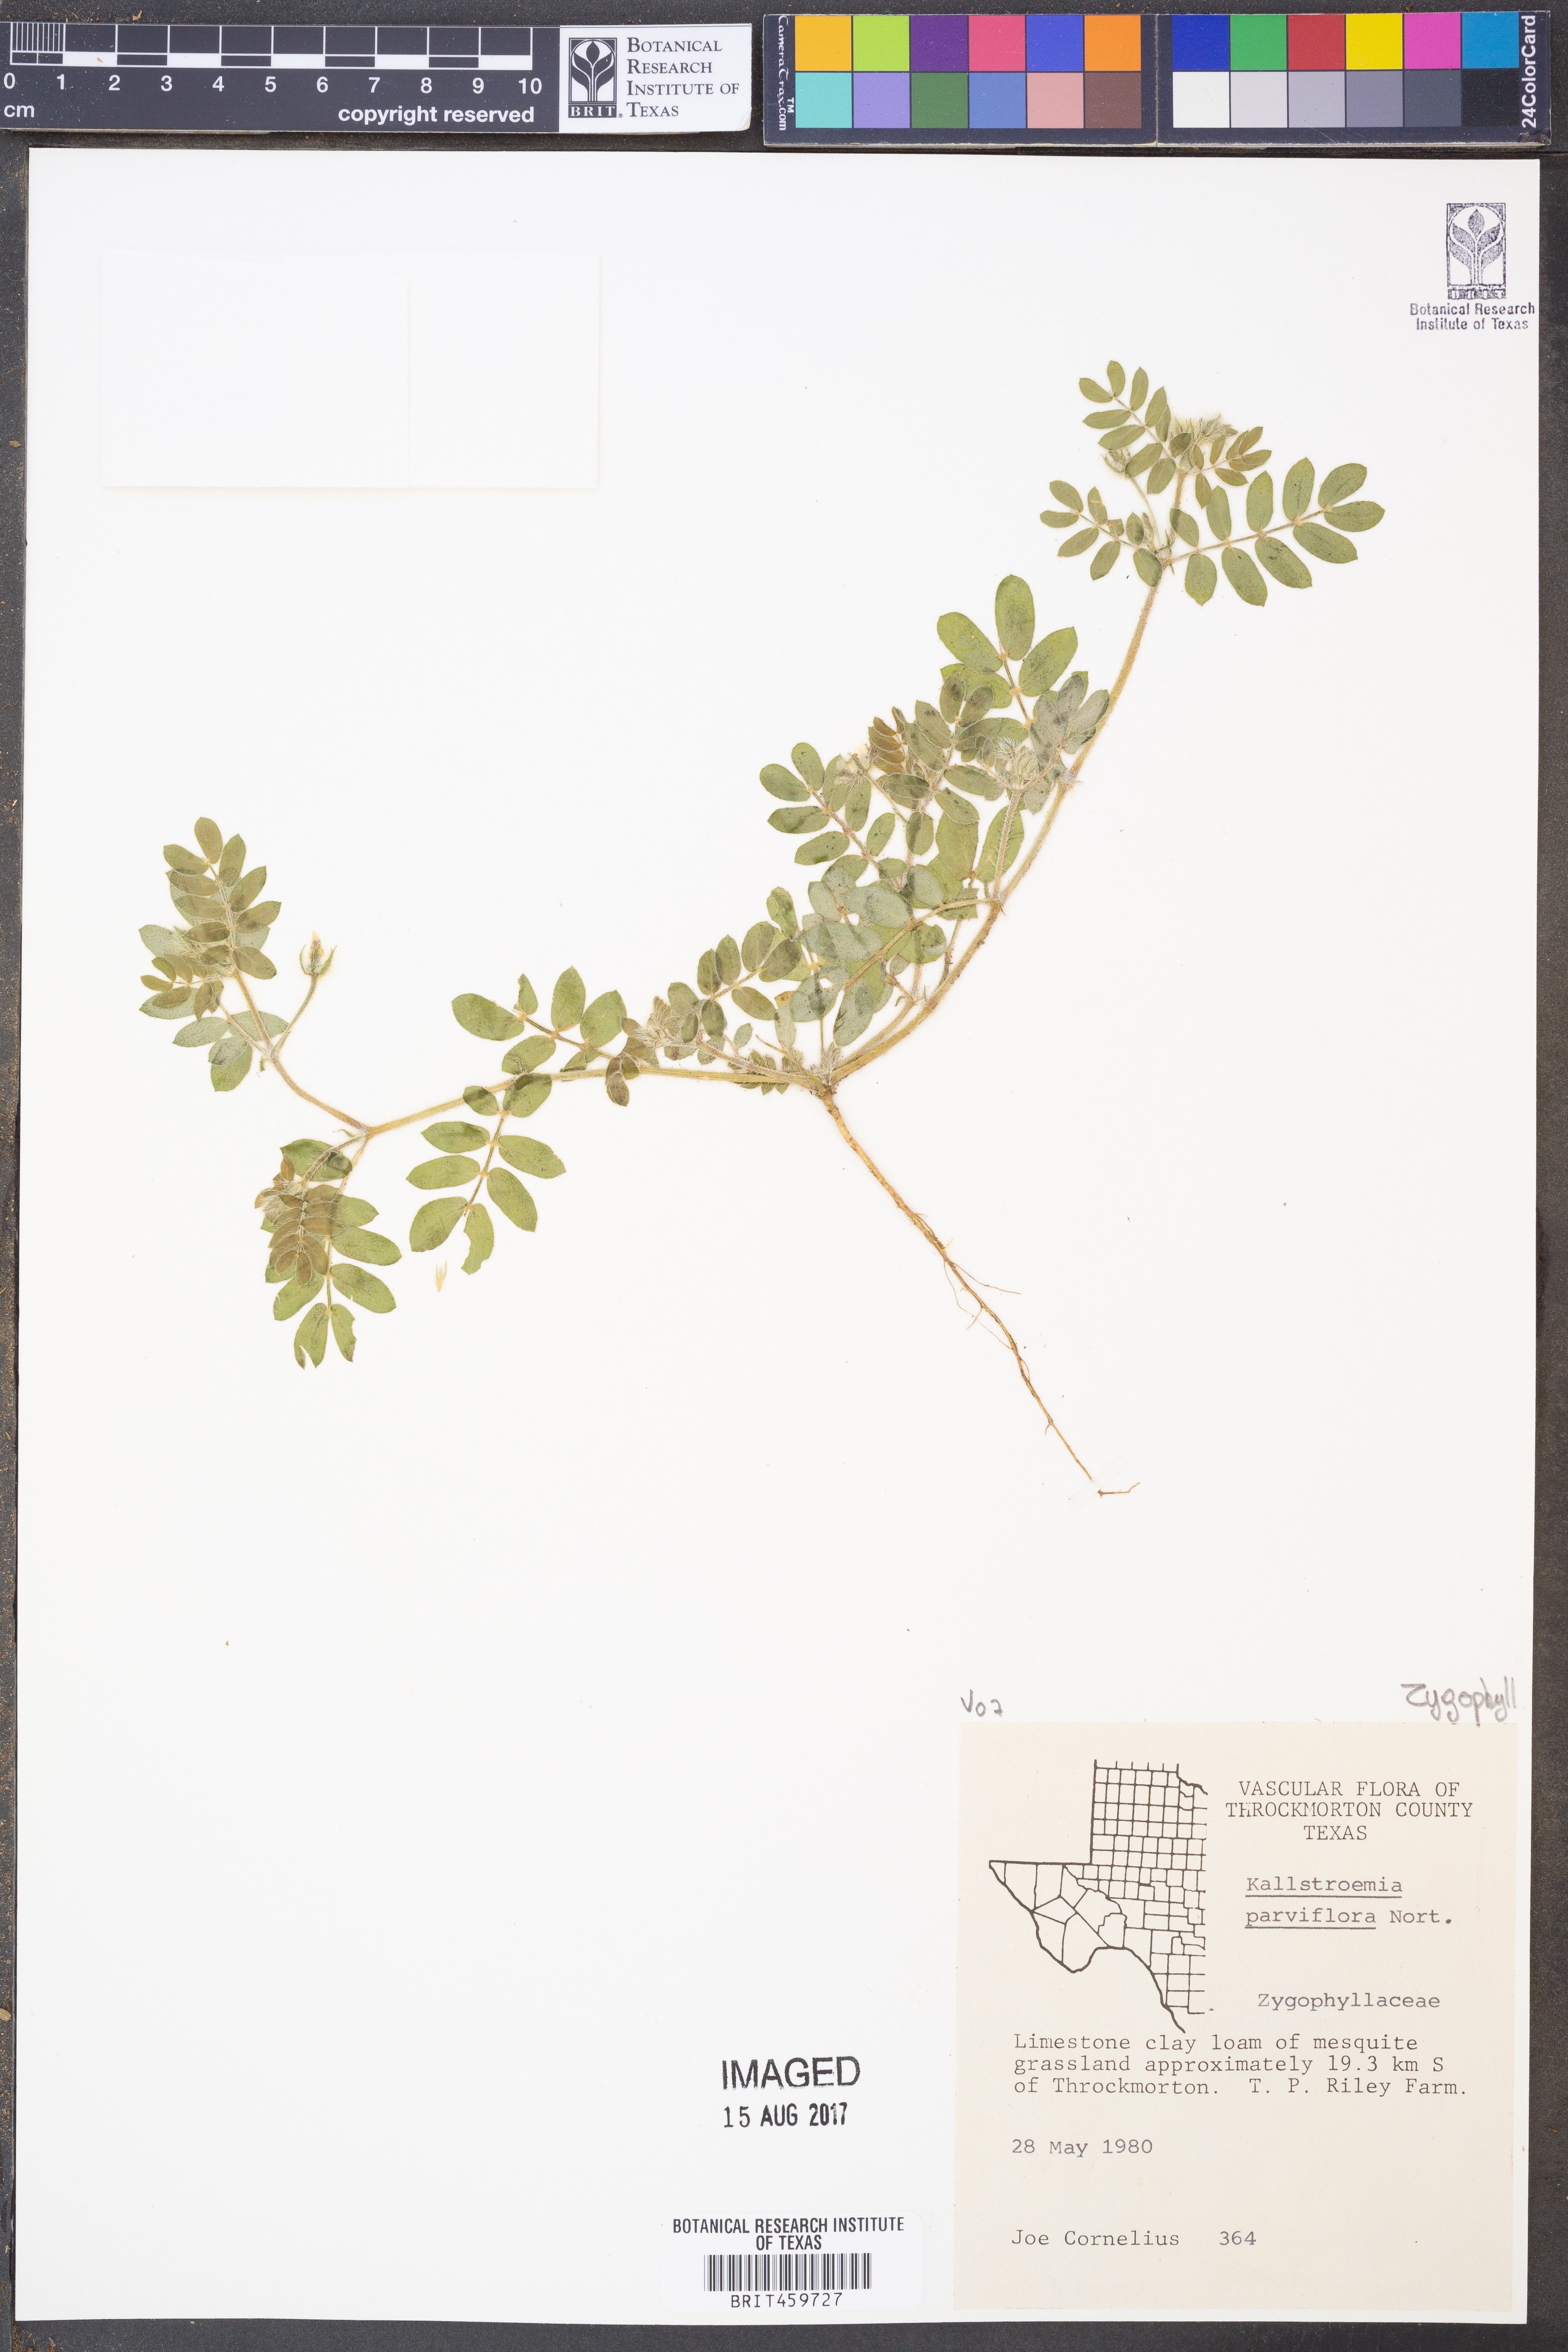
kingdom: Plantae
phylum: Tracheophyta
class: Magnoliopsida
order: Zygophyllales
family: Zygophyllaceae
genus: Kallstroemia
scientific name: Kallstroemia parviflora
